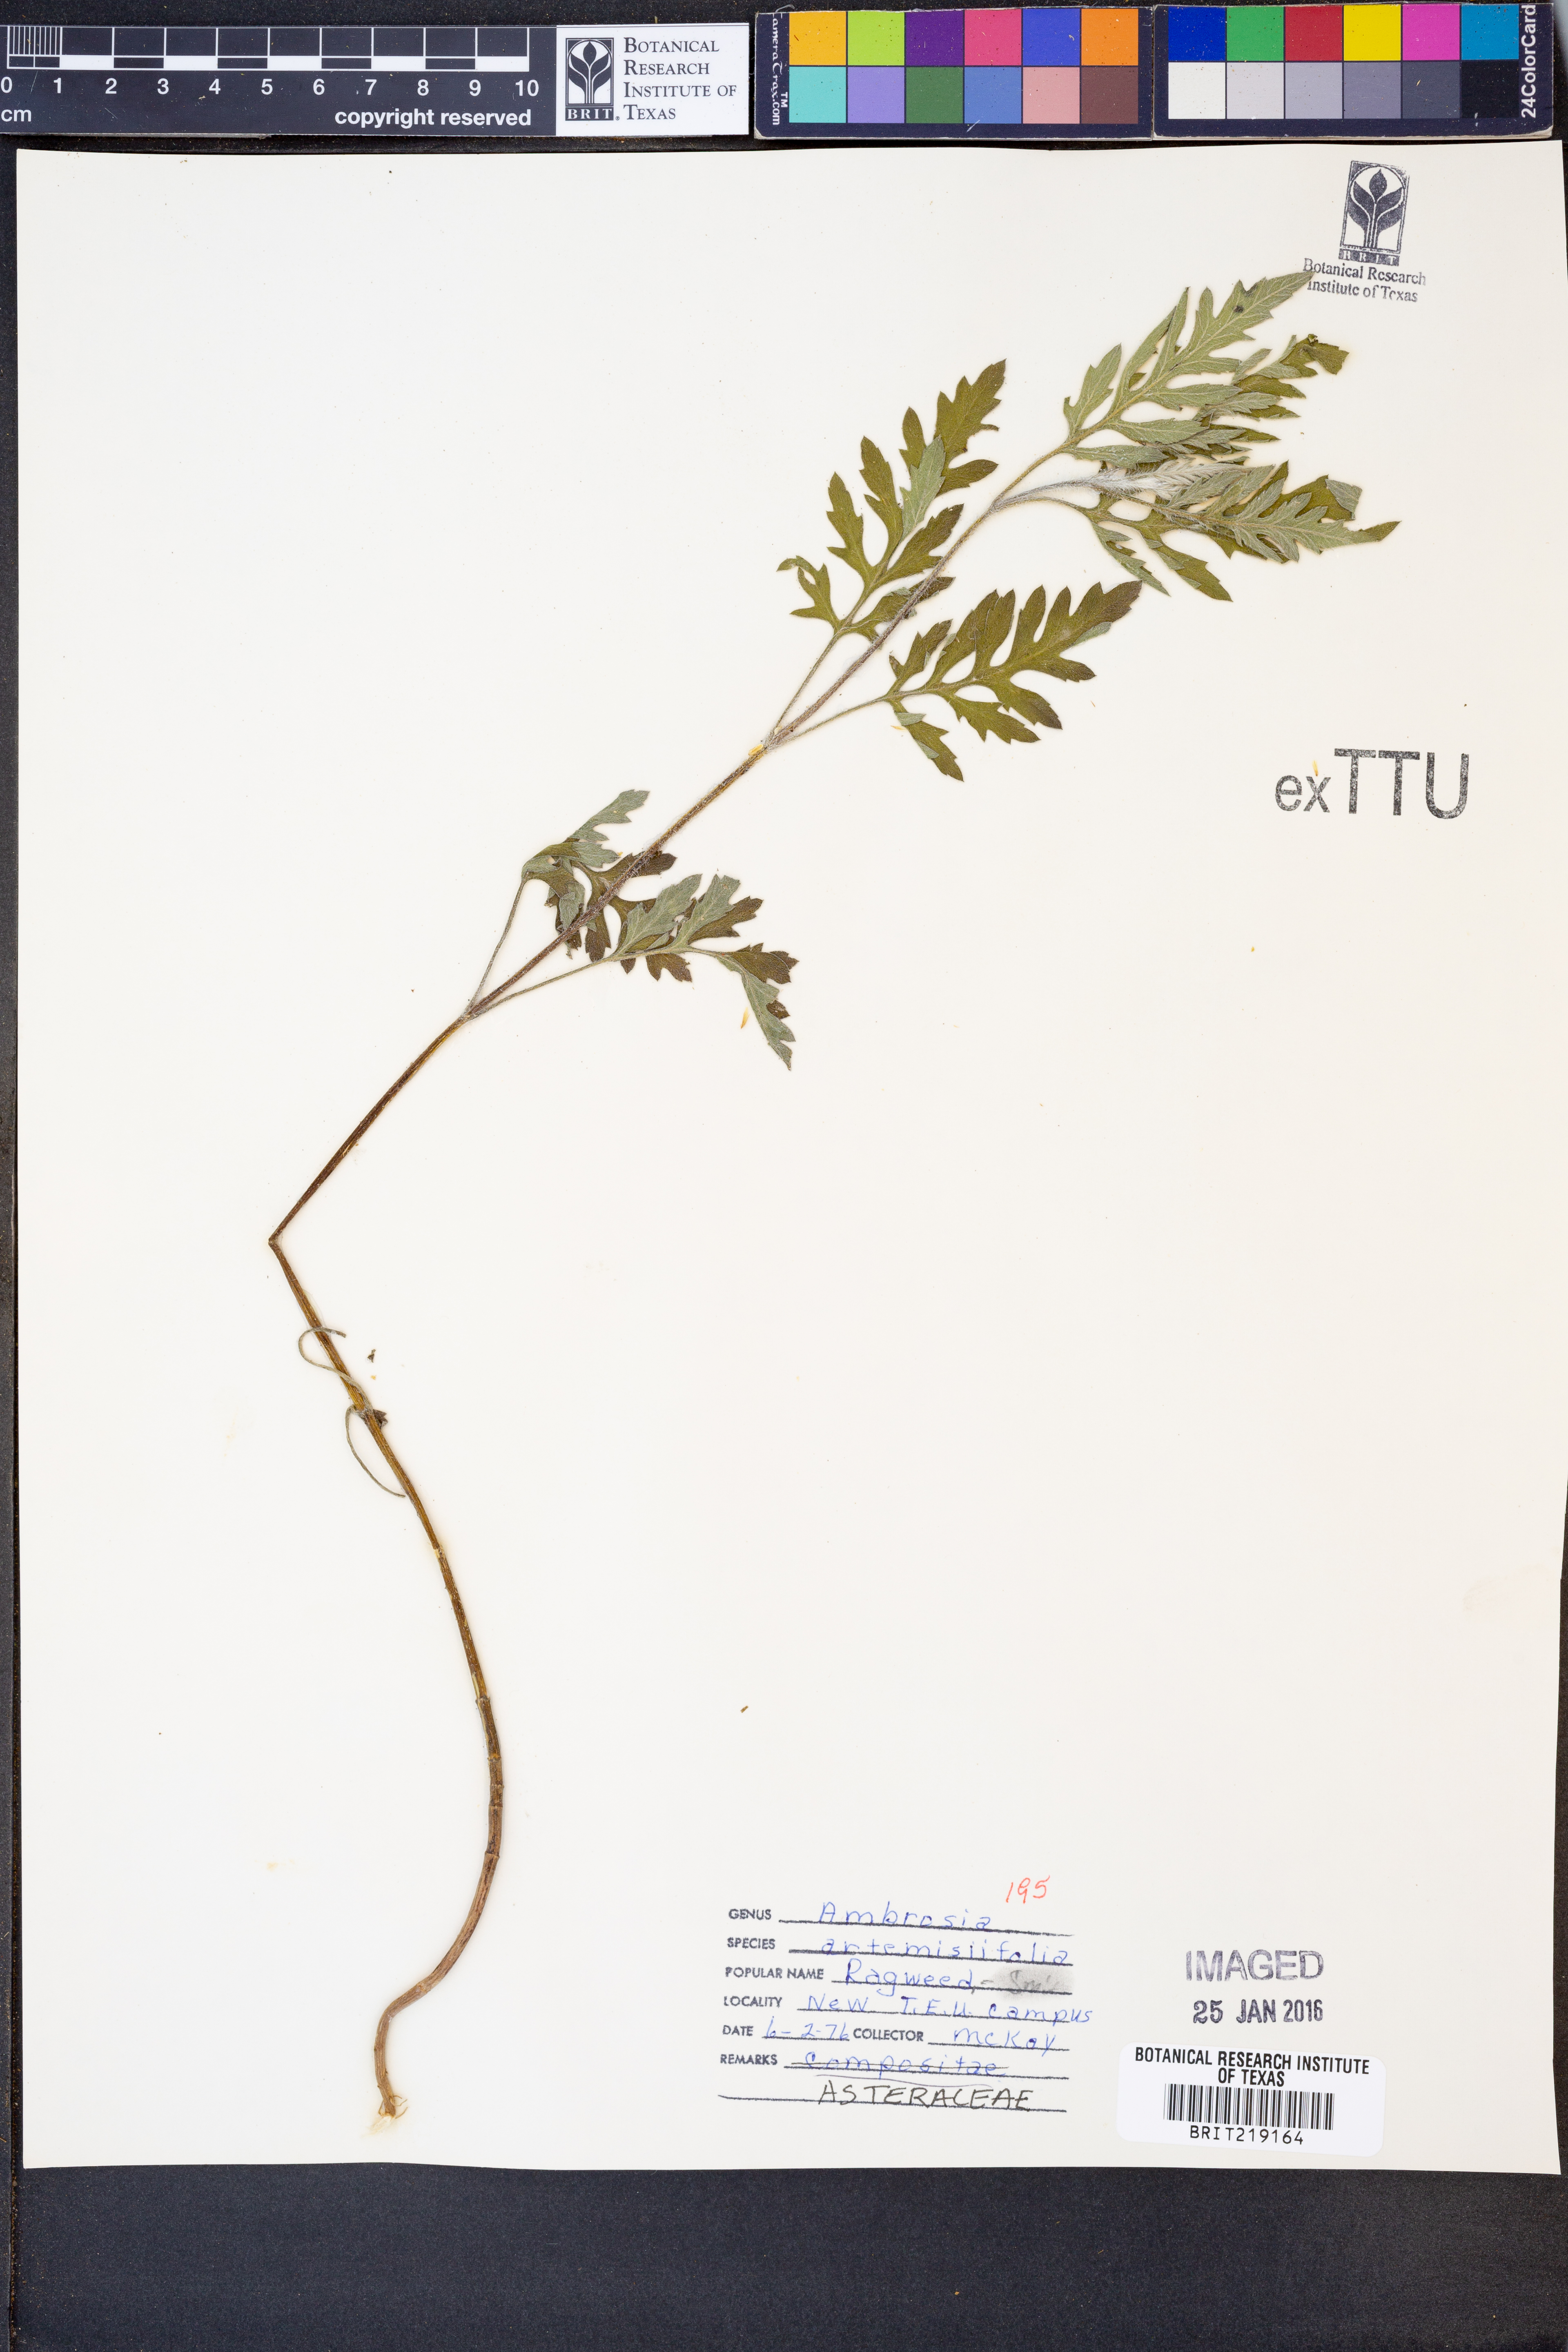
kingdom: Plantae
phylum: Tracheophyta
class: Magnoliopsida
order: Asterales
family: Asteraceae
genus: Ambrosia
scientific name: Ambrosia artemisiifolia
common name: Annual ragweed
